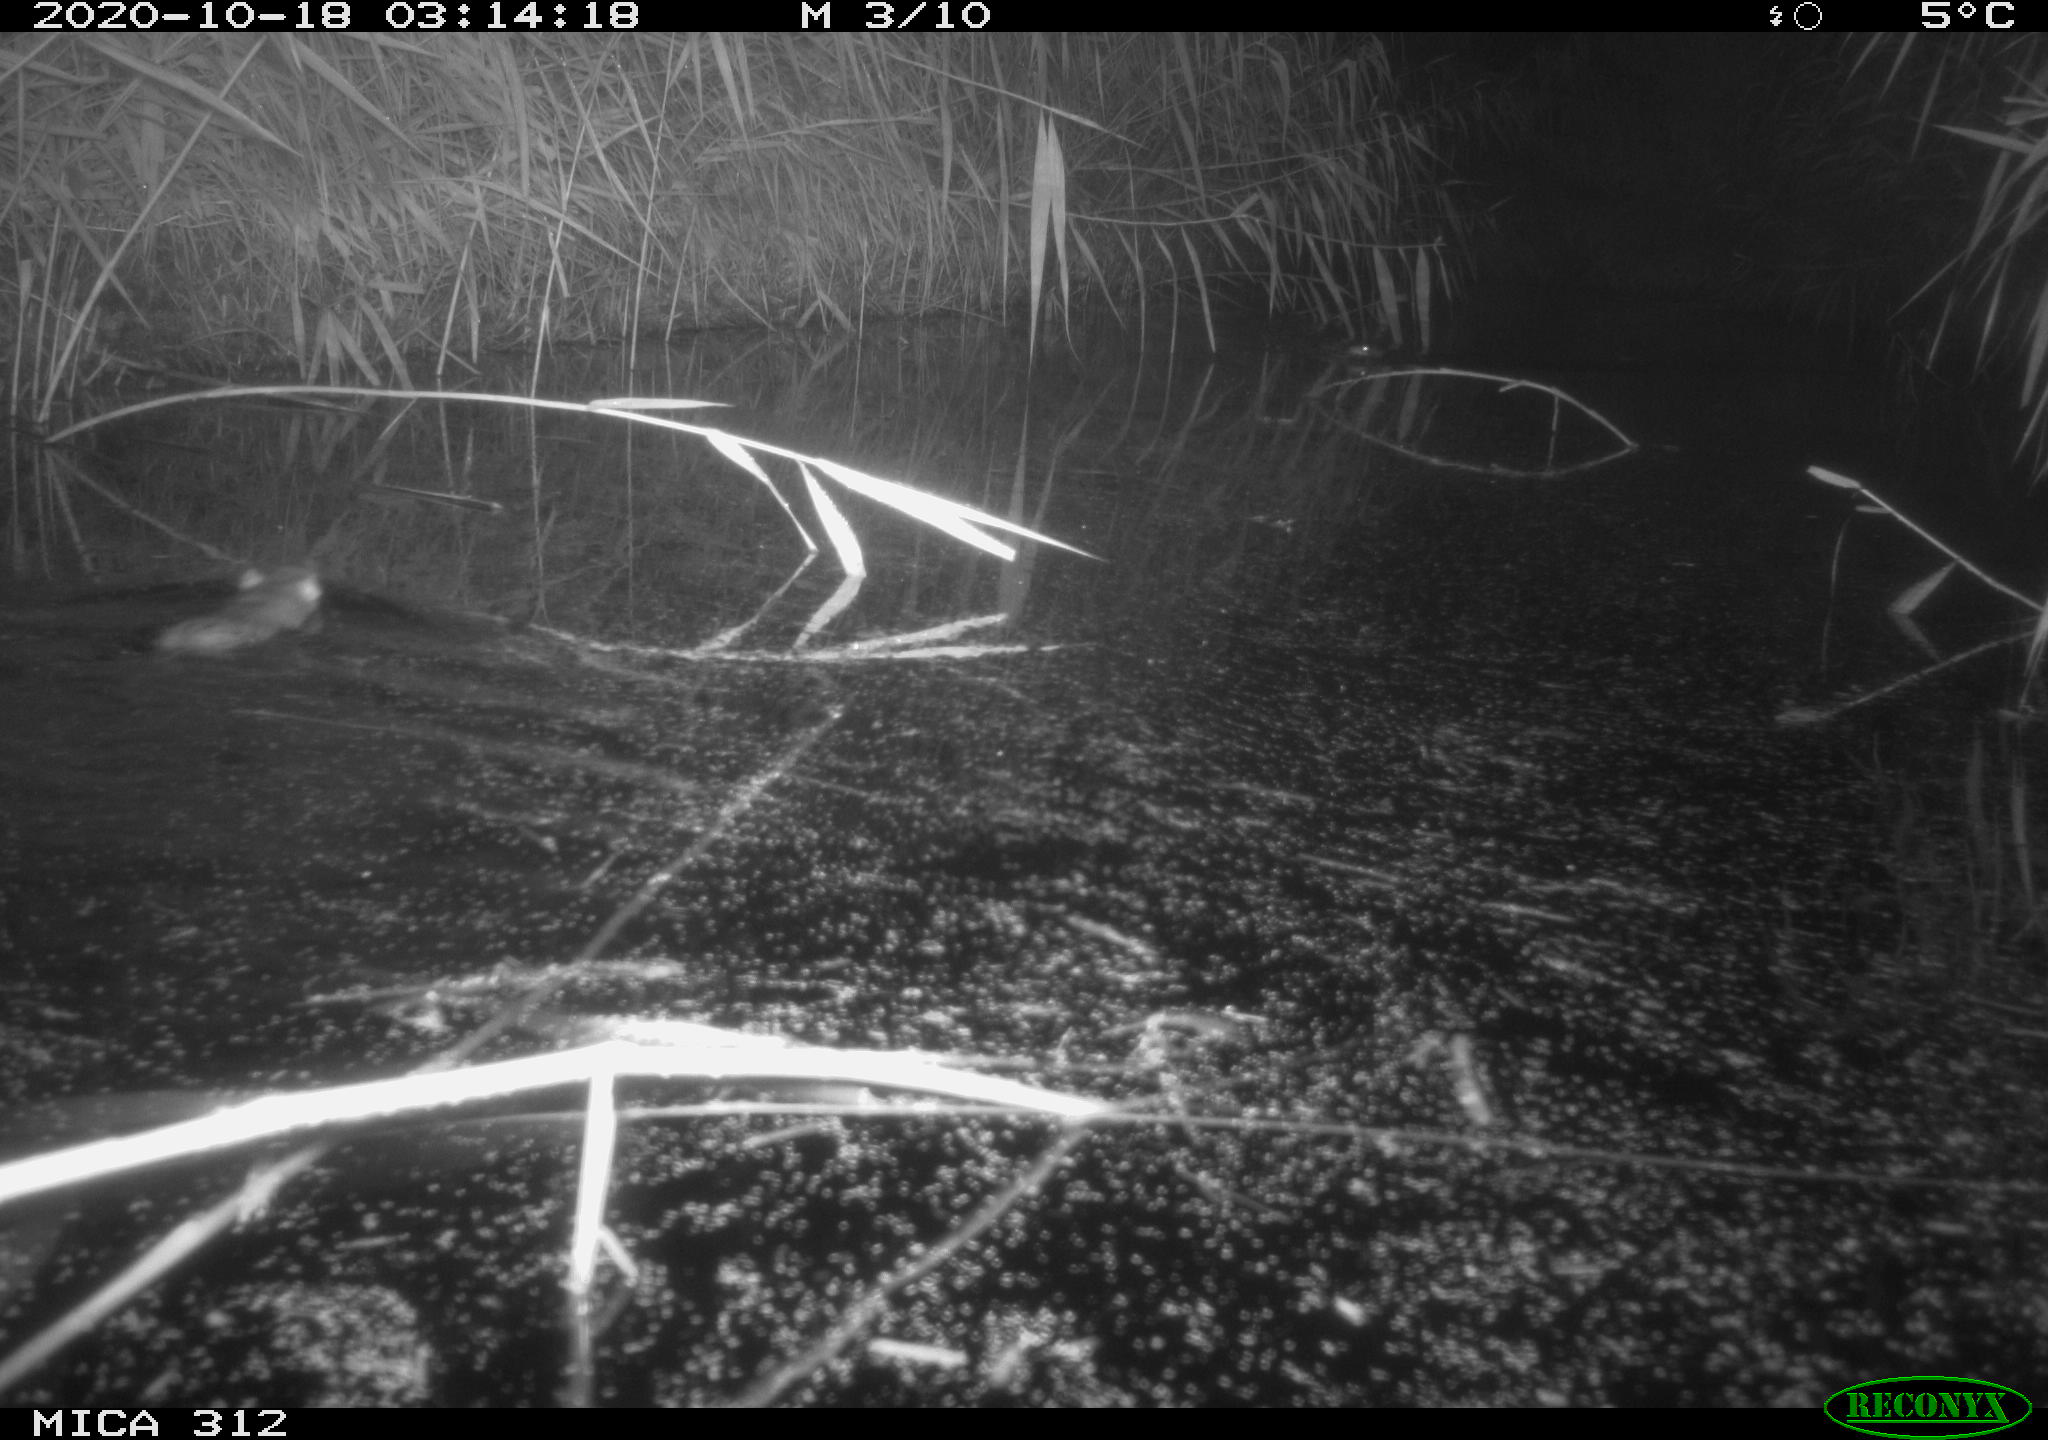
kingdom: Animalia
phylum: Chordata
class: Mammalia
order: Rodentia
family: Cricetidae
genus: Ondatra
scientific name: Ondatra zibethicus
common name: Muskrat
